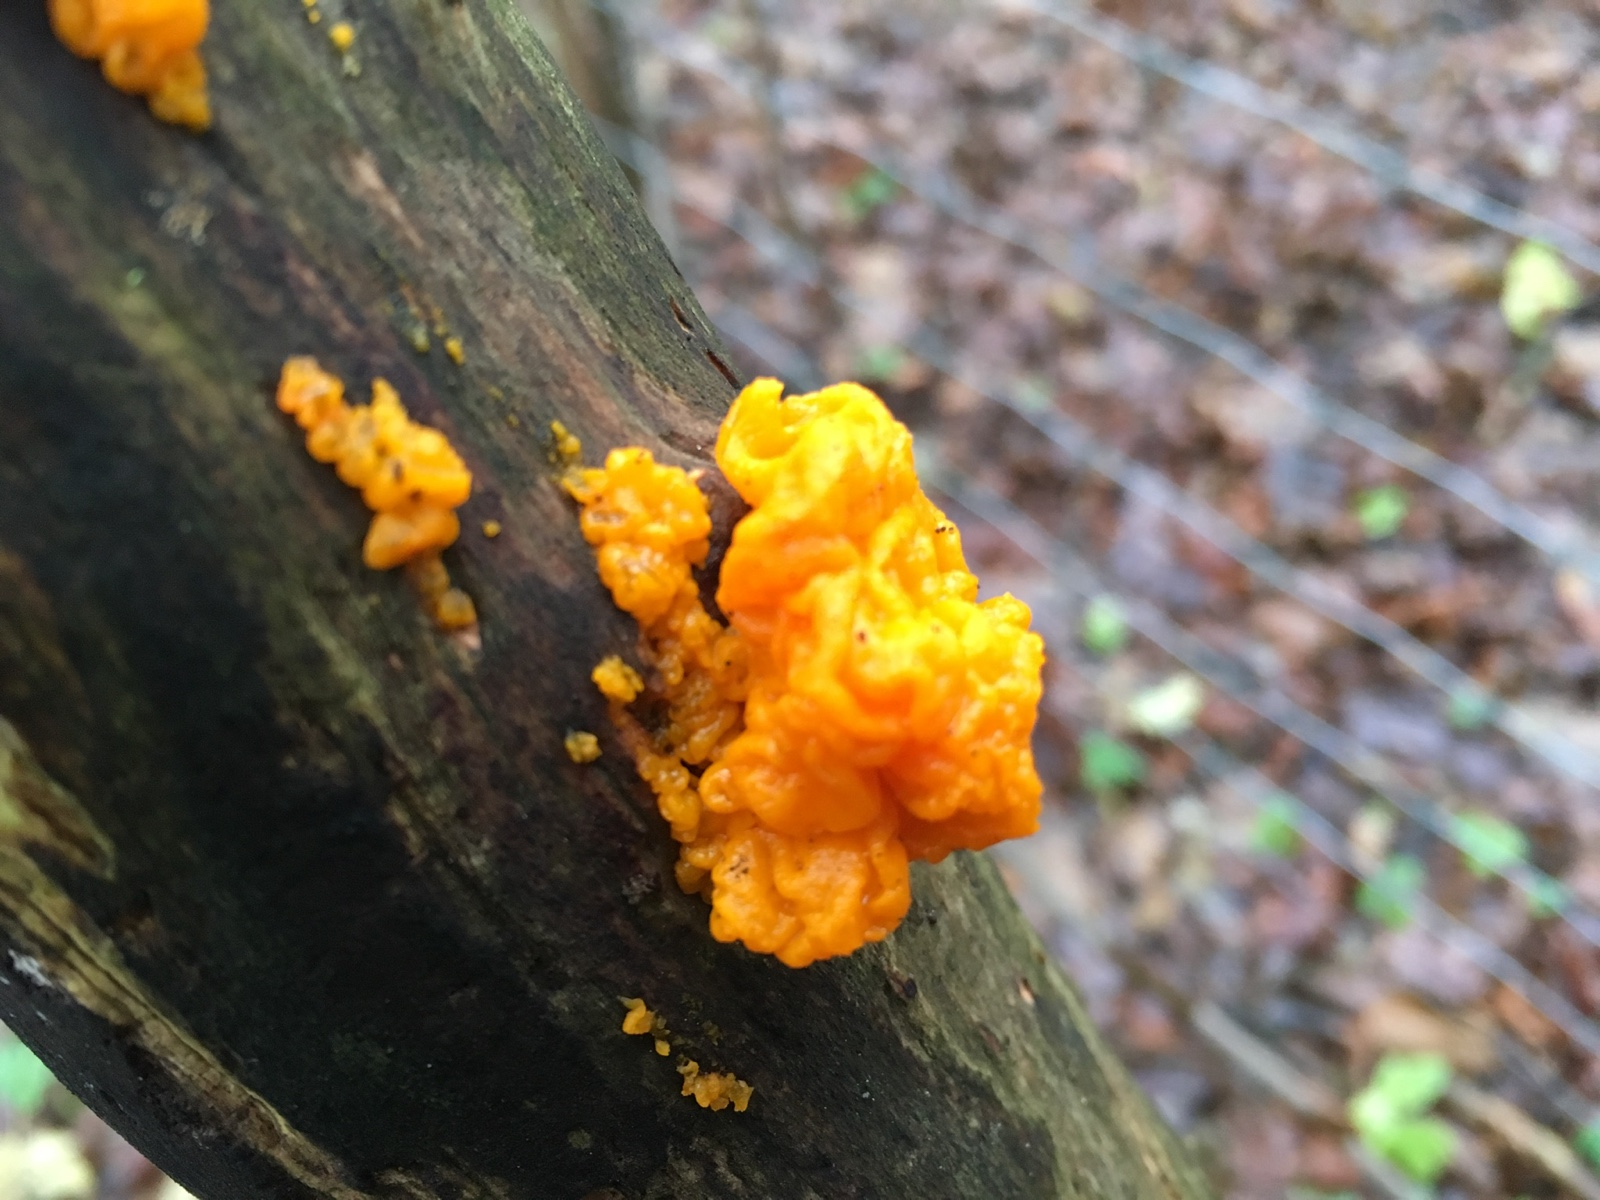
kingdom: Fungi
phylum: Basidiomycota
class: Tremellomycetes
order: Tremellales
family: Tremellaceae
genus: Tremella
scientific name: Tremella mesenterica
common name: gul bævresvamp
